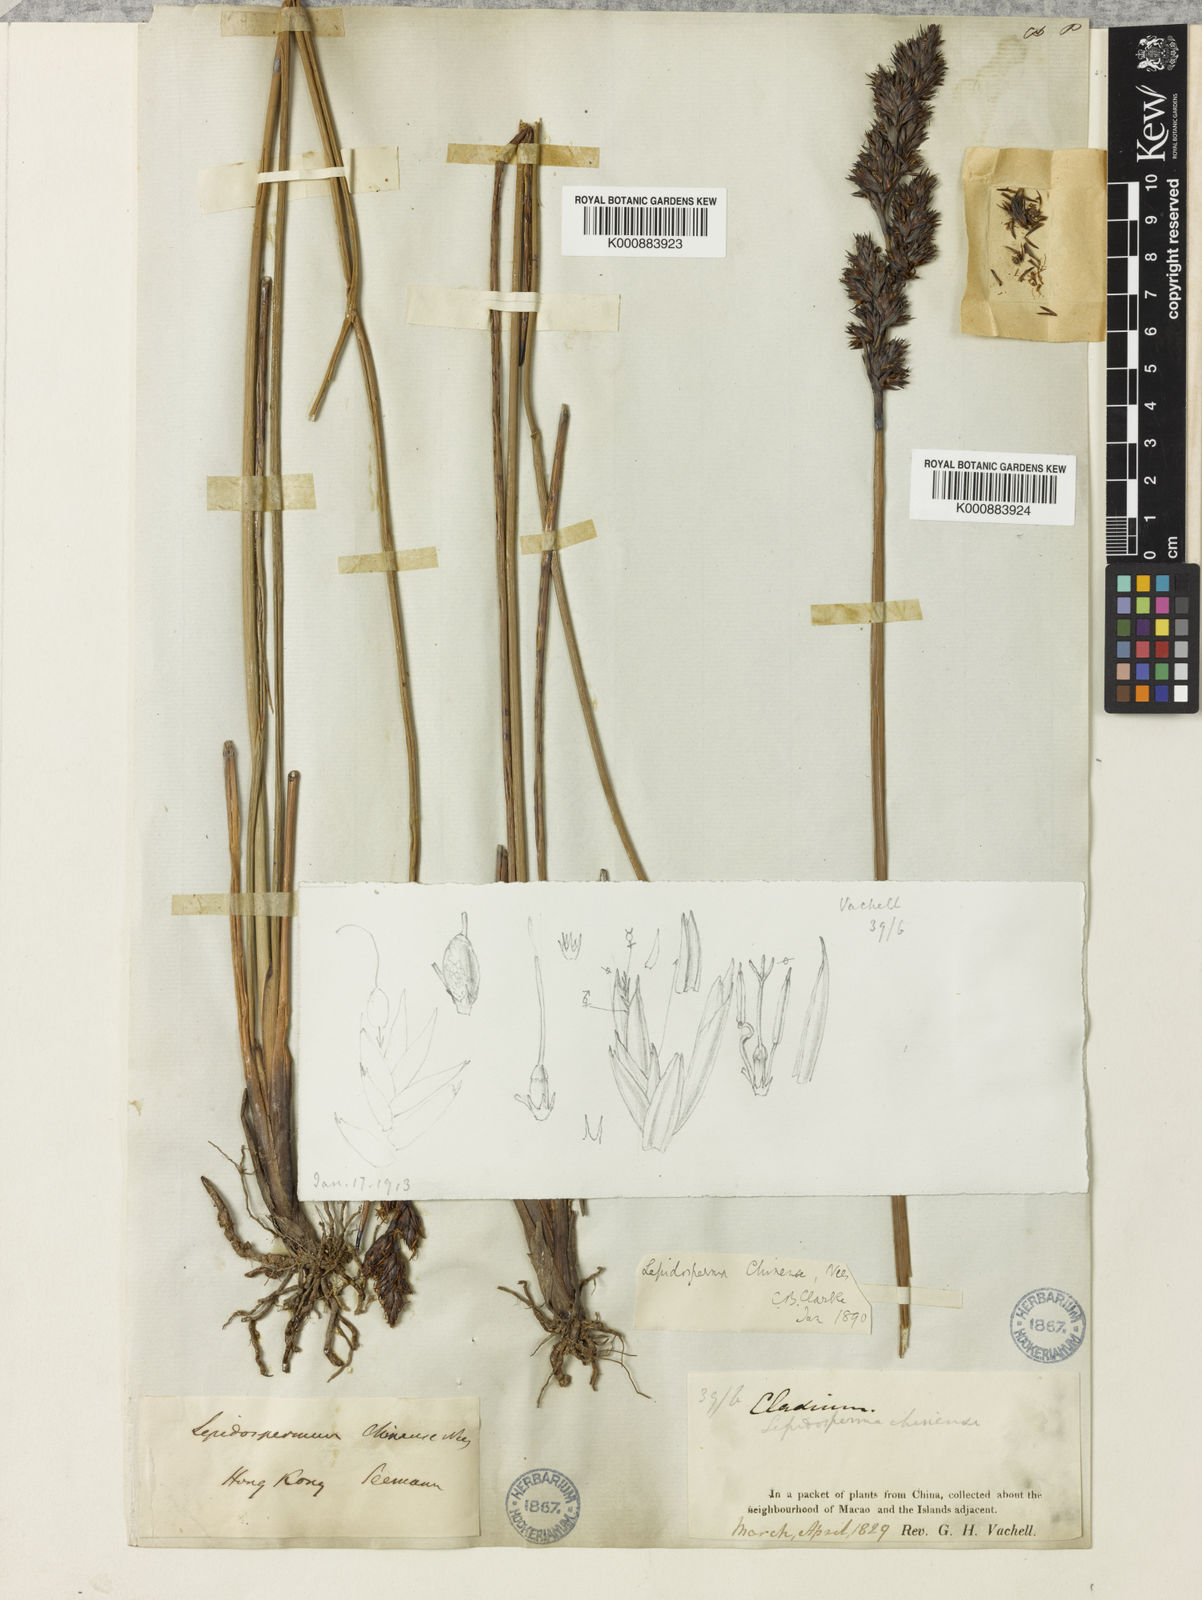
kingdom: Plantae
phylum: Tracheophyta
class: Liliopsida
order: Poales
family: Cyperaceae
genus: Lepidosperma
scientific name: Lepidosperma
